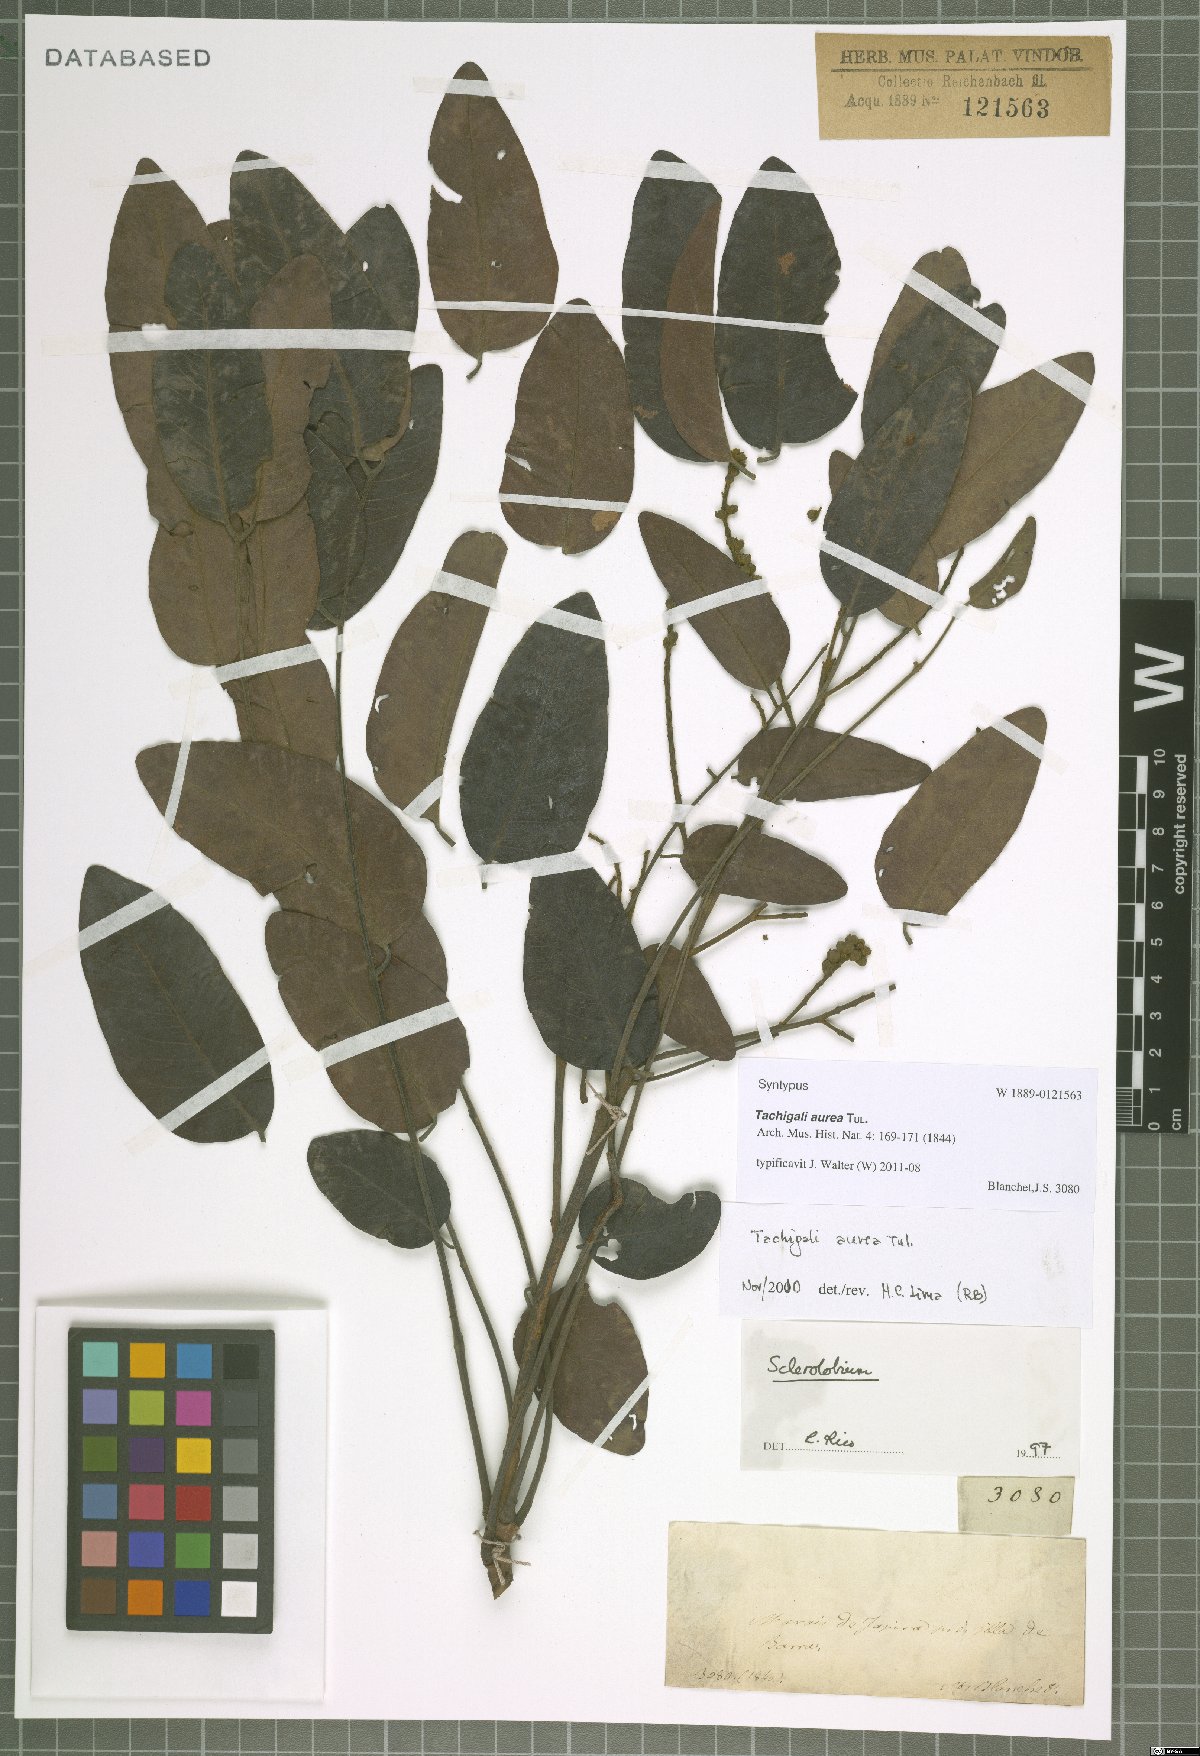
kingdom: Plantae
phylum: Tracheophyta
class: Magnoliopsida
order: Fabales
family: Fabaceae
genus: Tachigali
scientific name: Tachigali aurea
